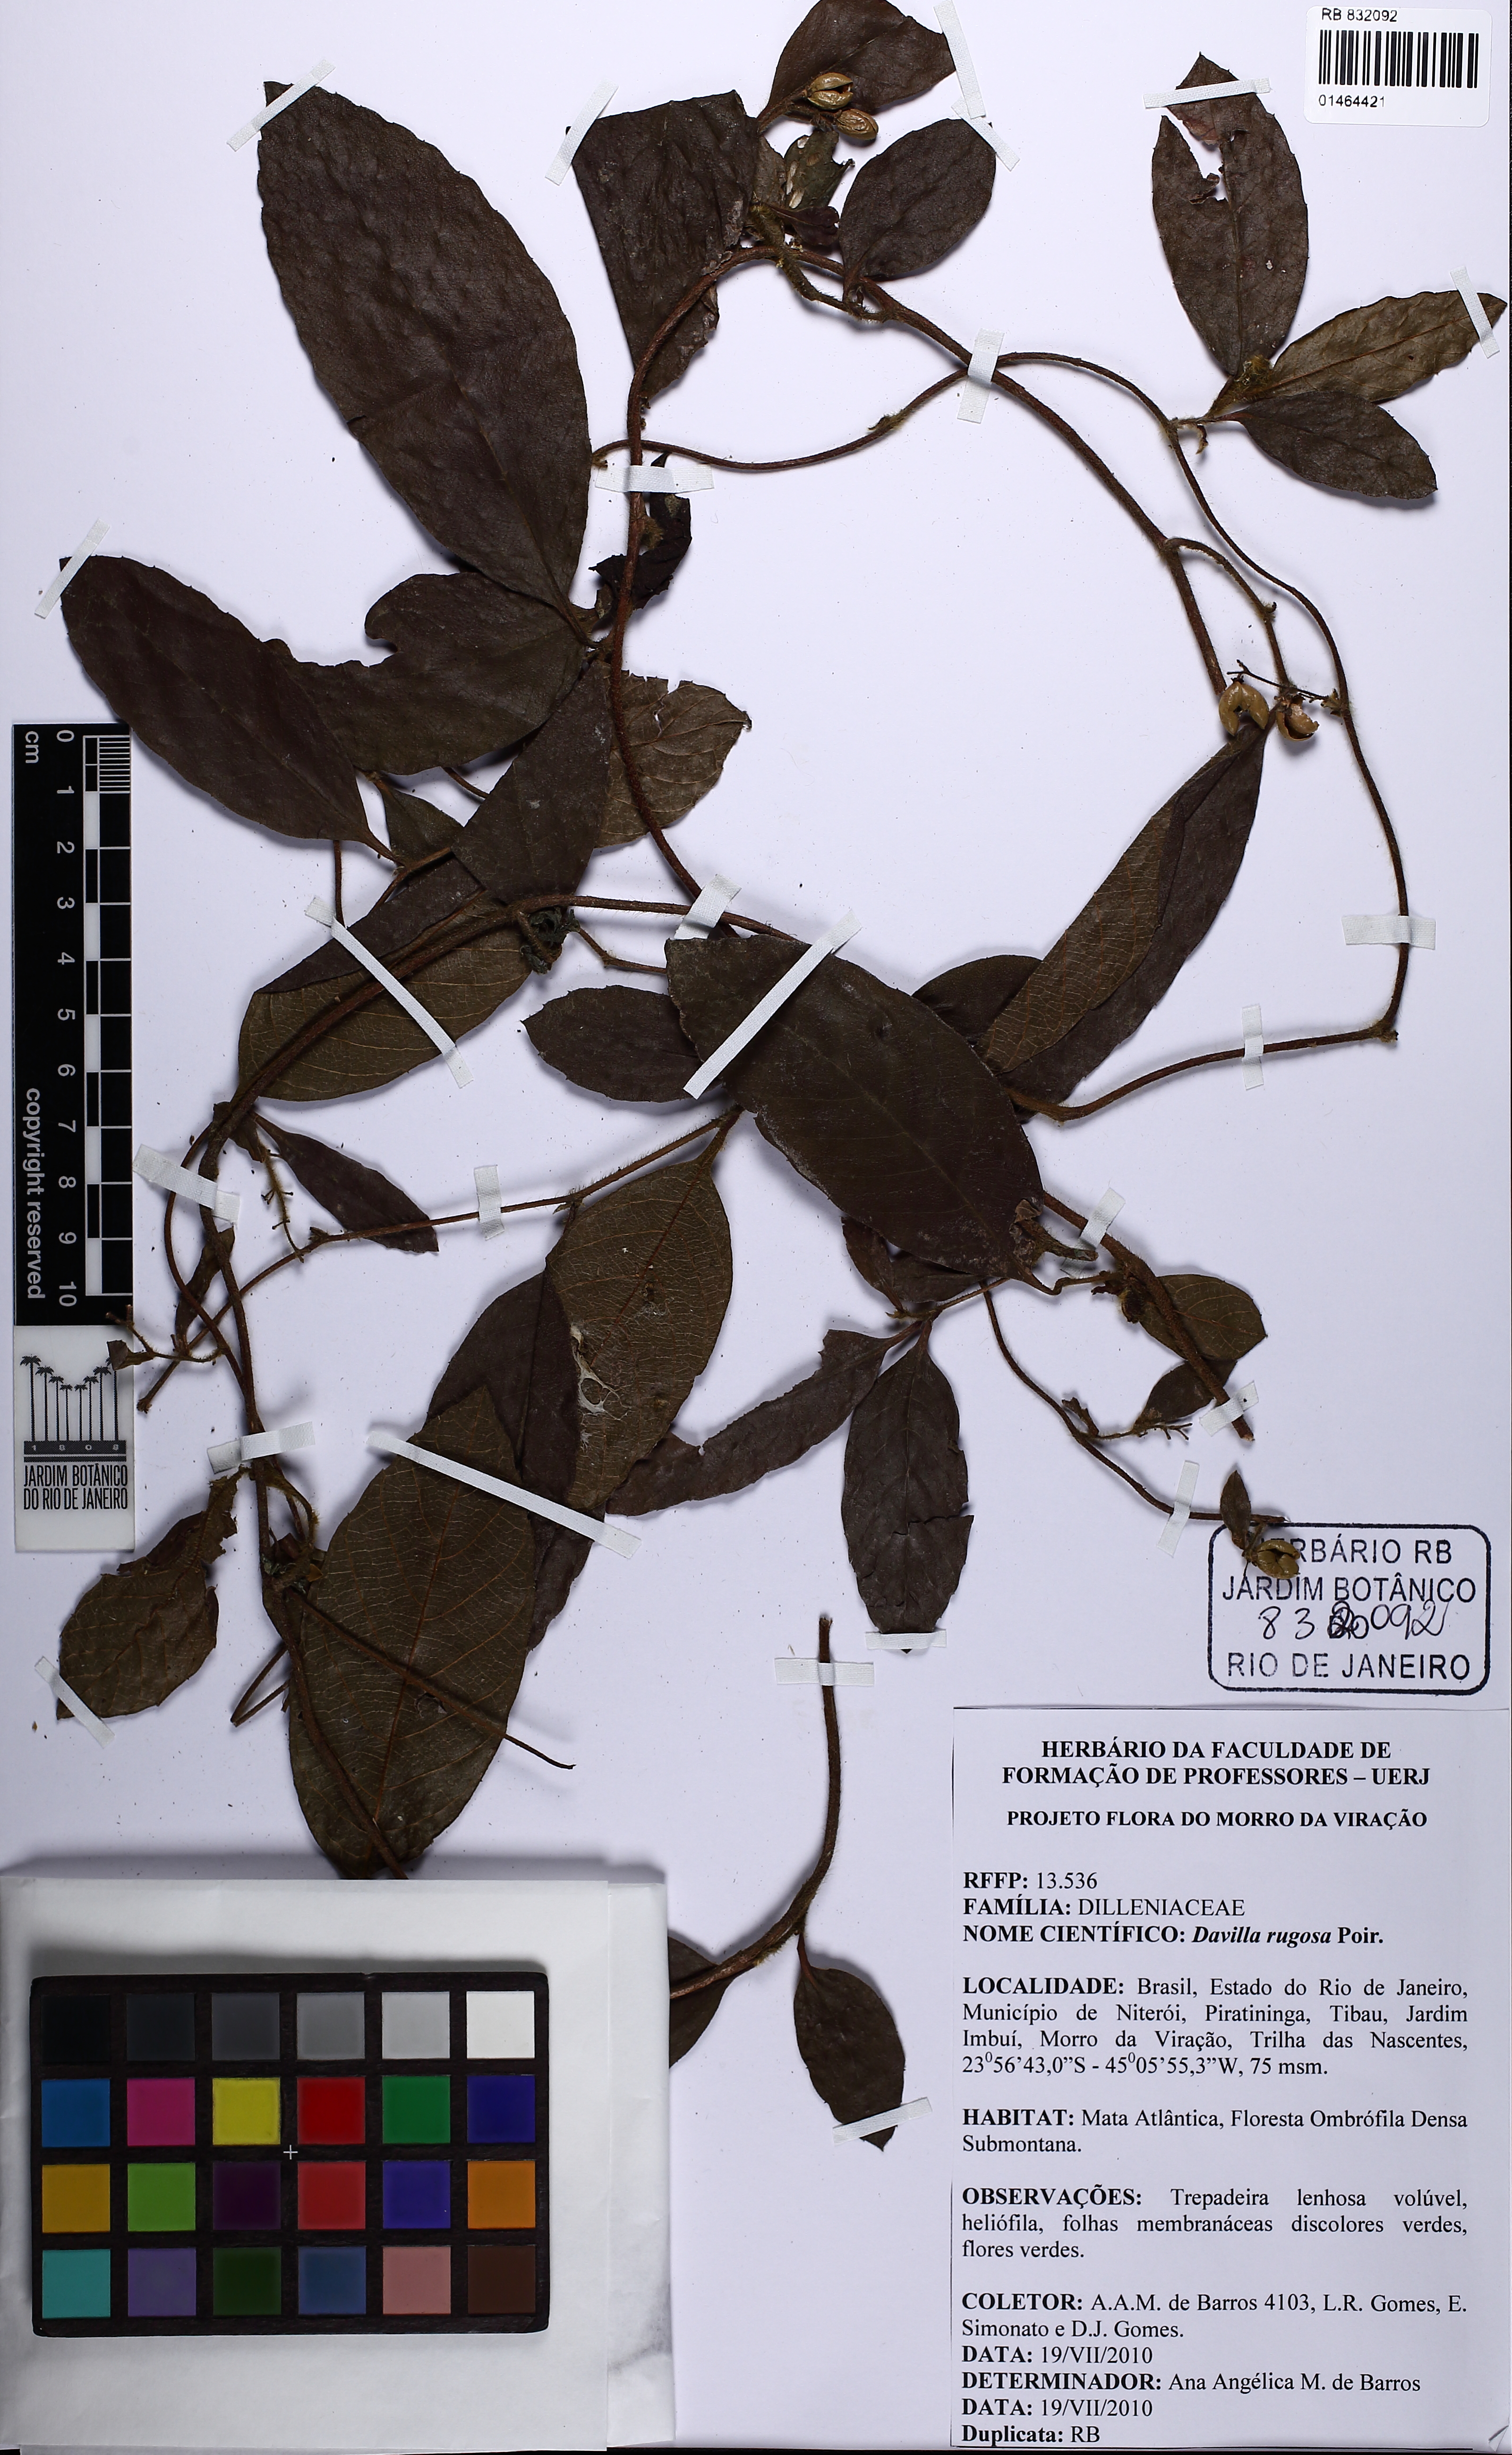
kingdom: Plantae
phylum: Tracheophyta
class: Magnoliopsida
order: Dilleniales
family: Dilleniaceae
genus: Davilla
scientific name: Davilla rugosa
